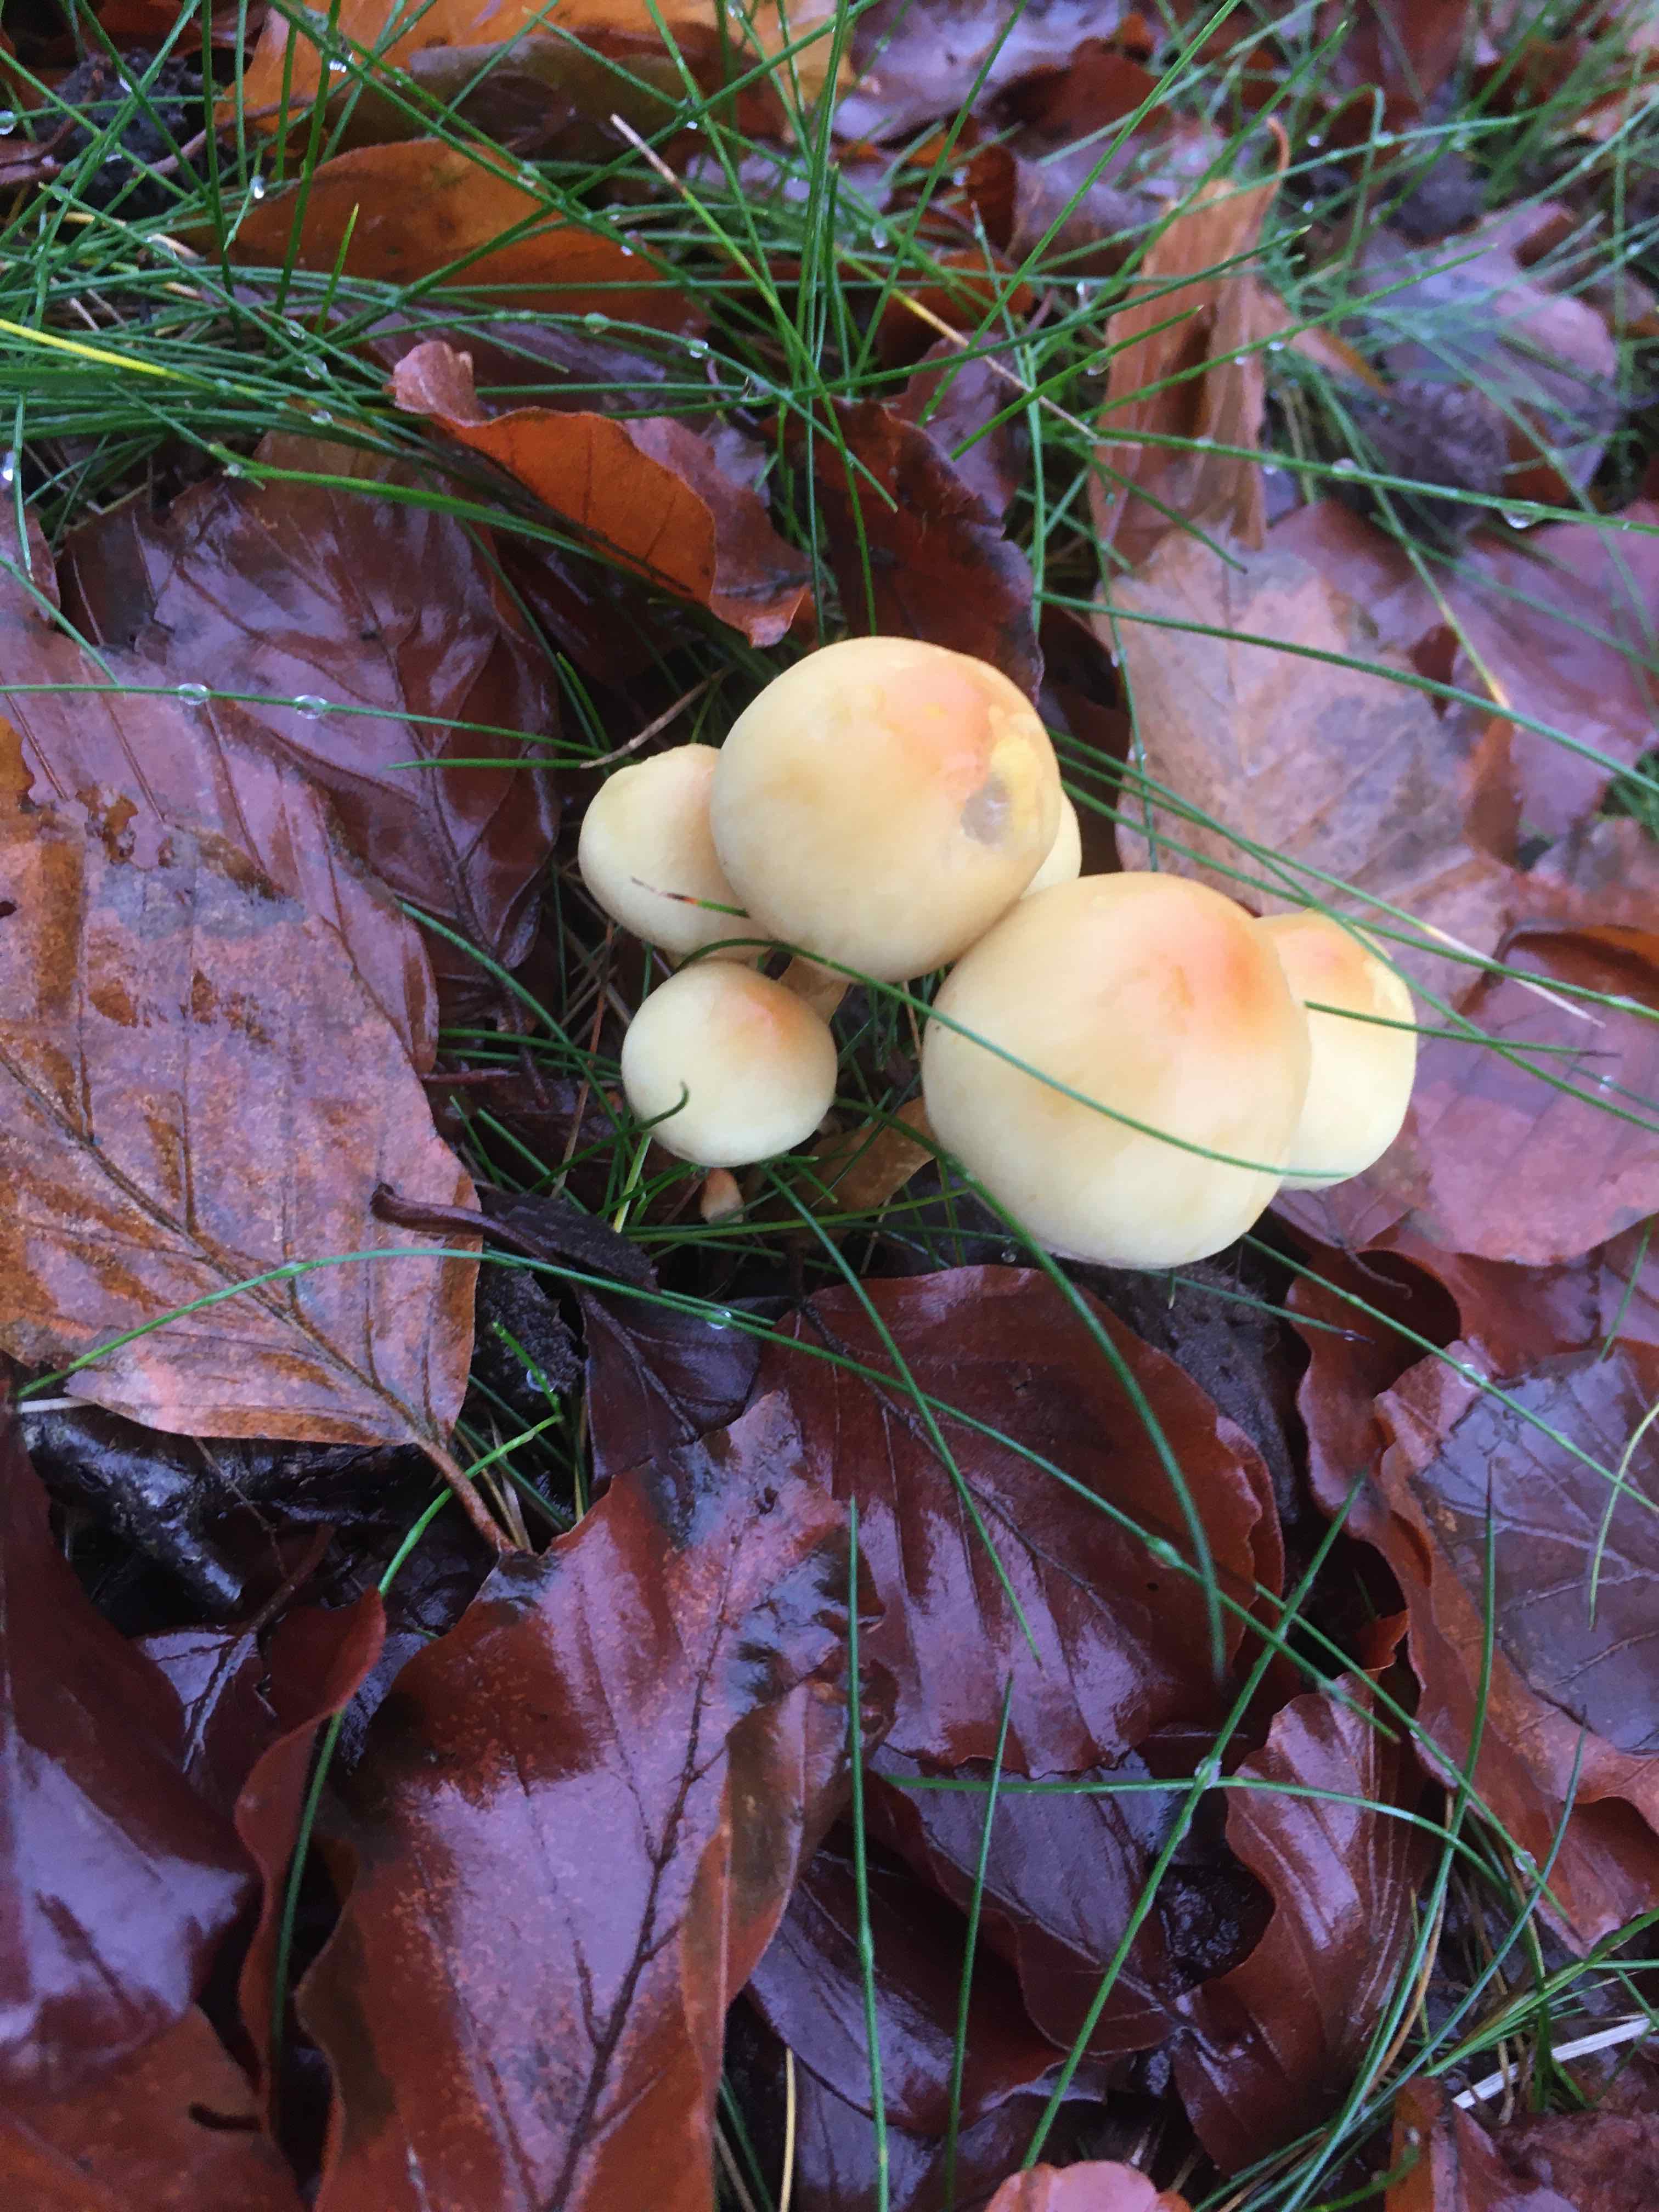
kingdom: Fungi
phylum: Basidiomycota
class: Agaricomycetes
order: Agaricales
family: Strophariaceae
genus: Hypholoma
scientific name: Hypholoma fasciculare
